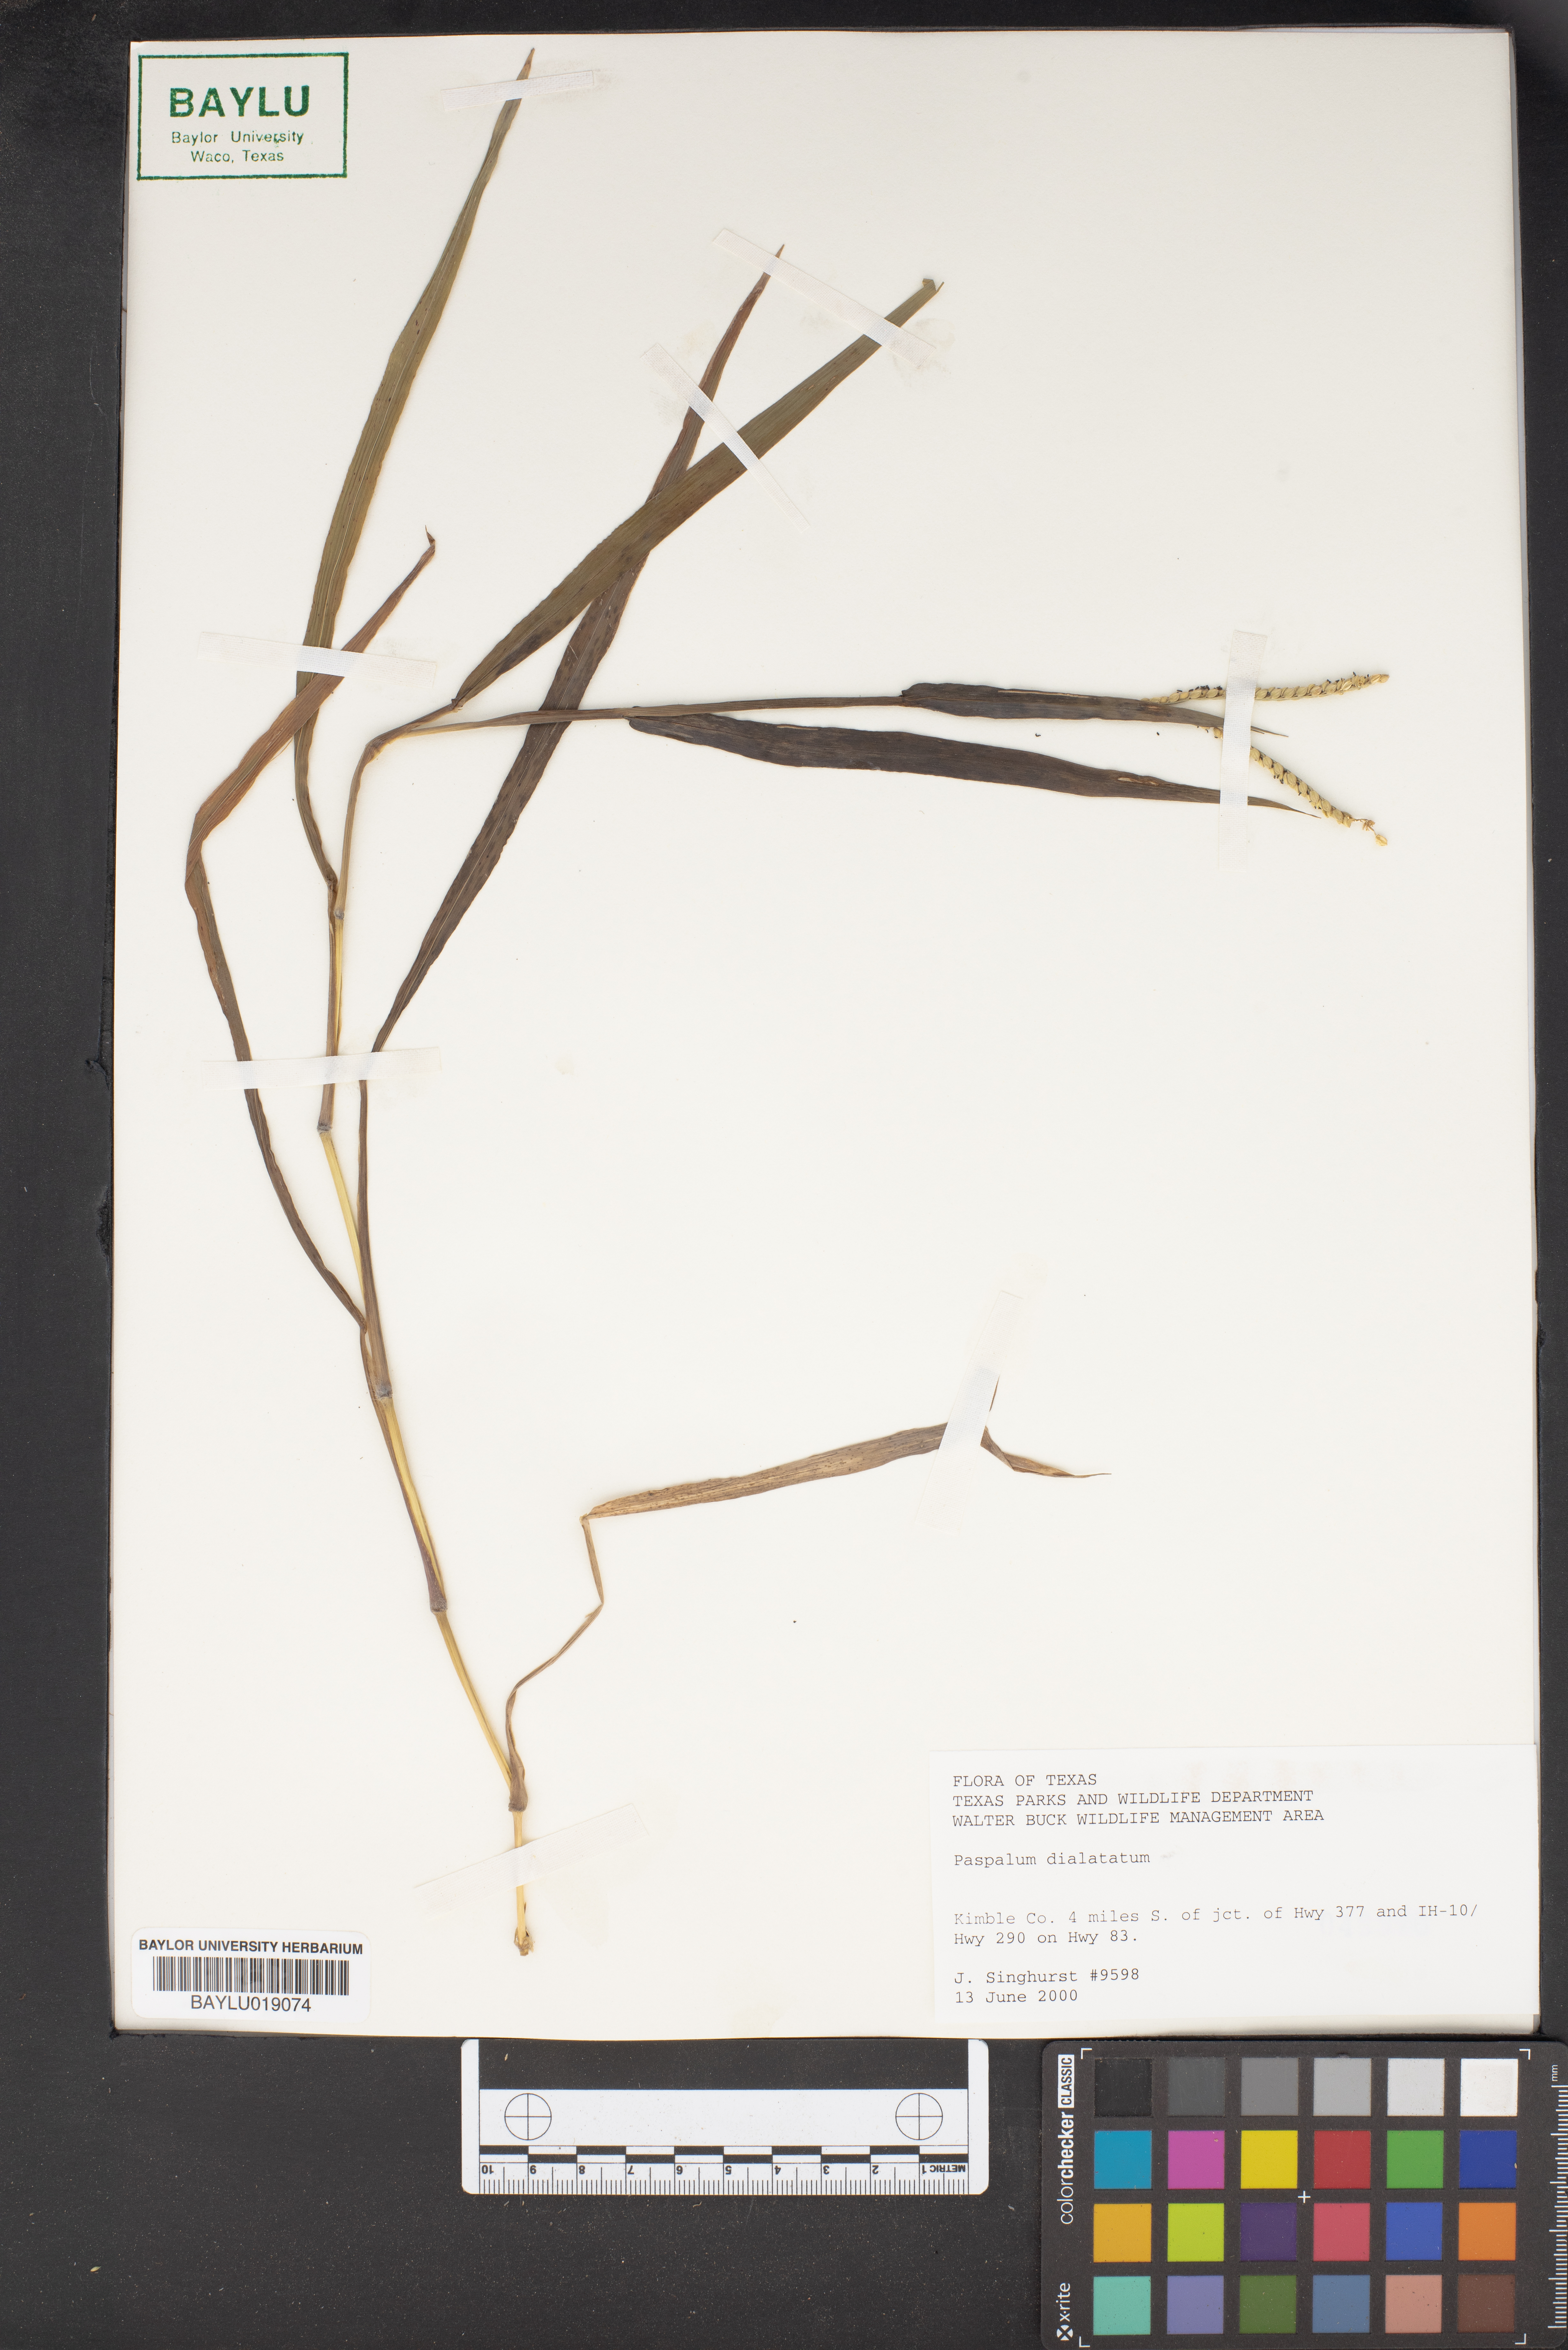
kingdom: Plantae
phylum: Tracheophyta
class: Liliopsida
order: Poales
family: Poaceae
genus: Paspalum
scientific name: Paspalum dilatatum
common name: Dallisgrass
